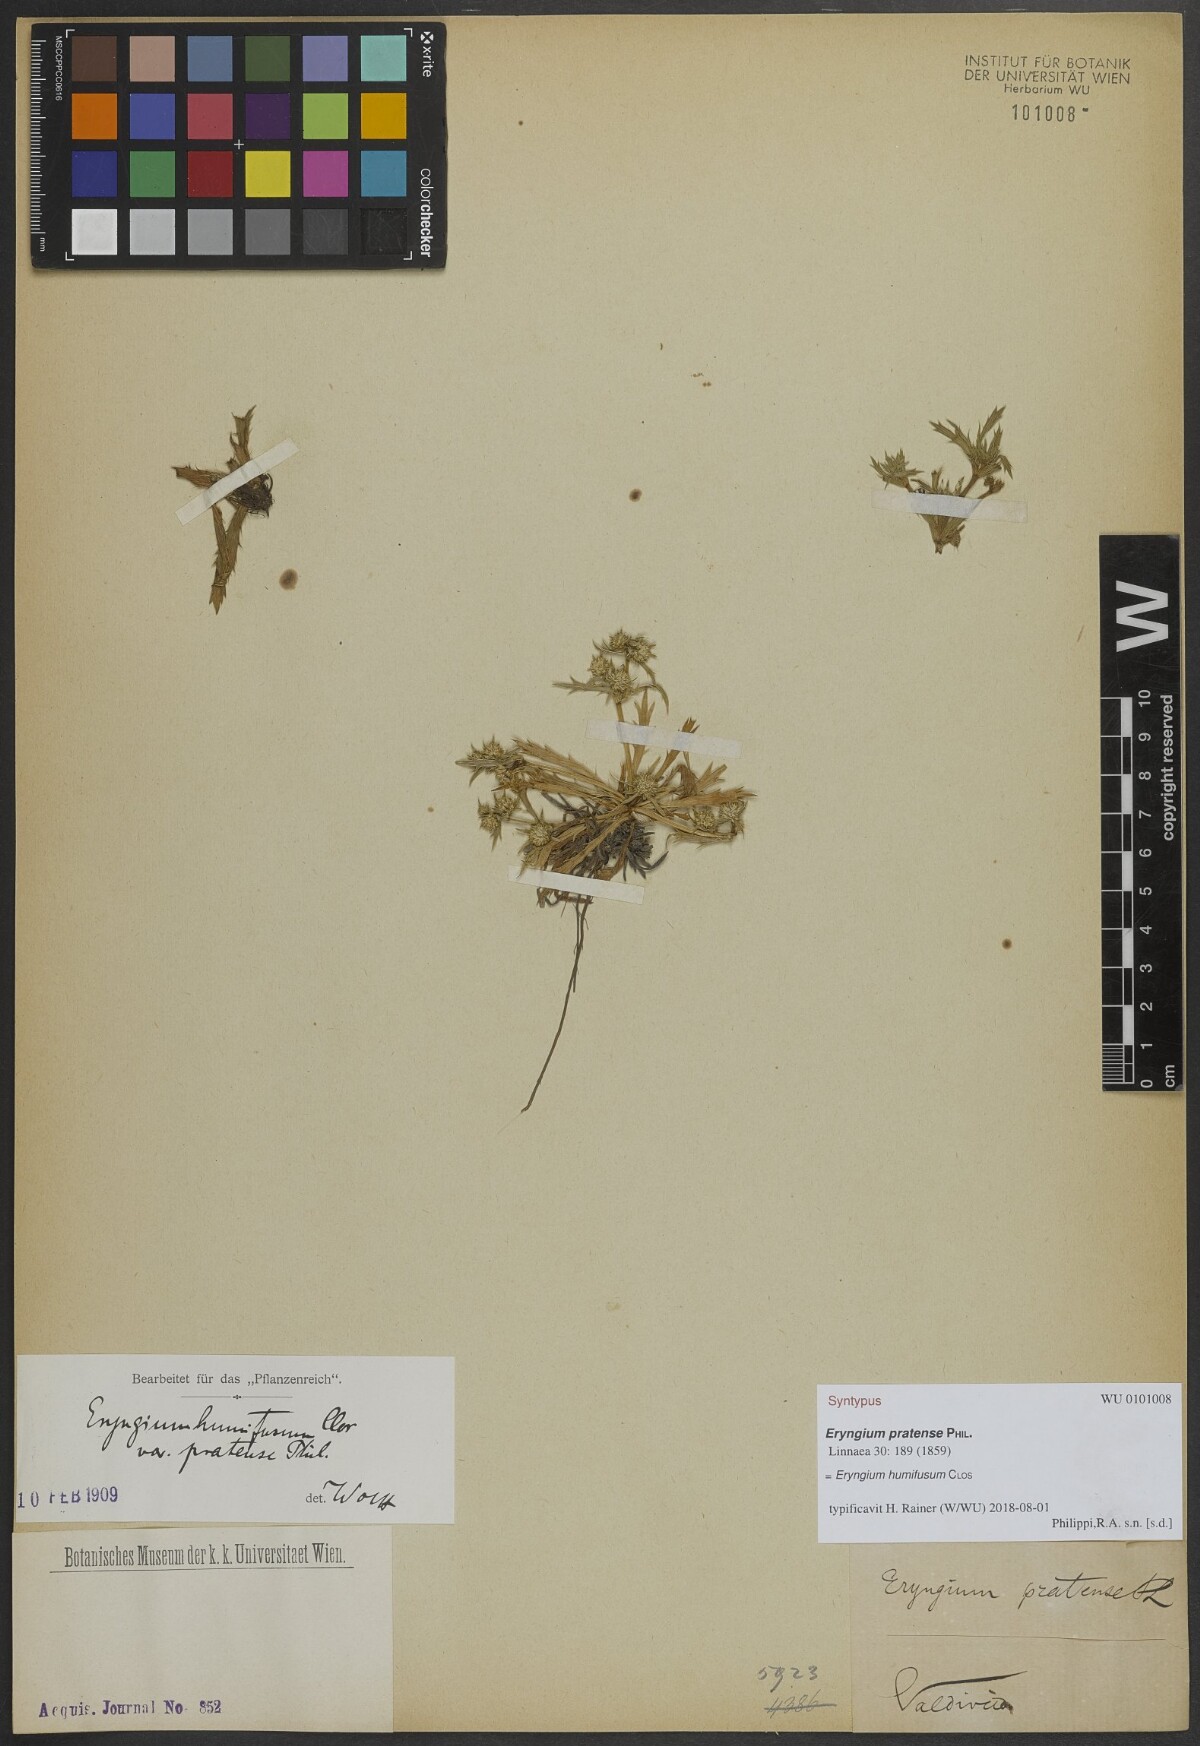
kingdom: Plantae
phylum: Tracheophyta
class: Magnoliopsida
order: Apiales
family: Apiaceae
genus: Eryngium
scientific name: Eryngium humifusum
